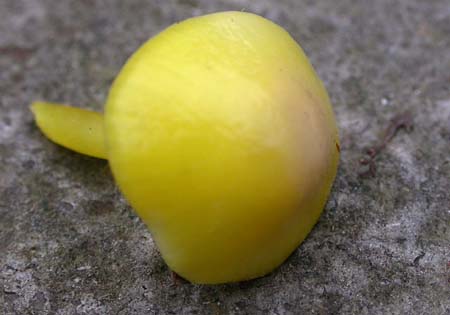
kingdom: Fungi
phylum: Basidiomycota
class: Agaricomycetes
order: Agaricales
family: Hygrophoraceae
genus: Hygrocybe
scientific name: Hygrocybe chlorophana
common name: gul vokshat
